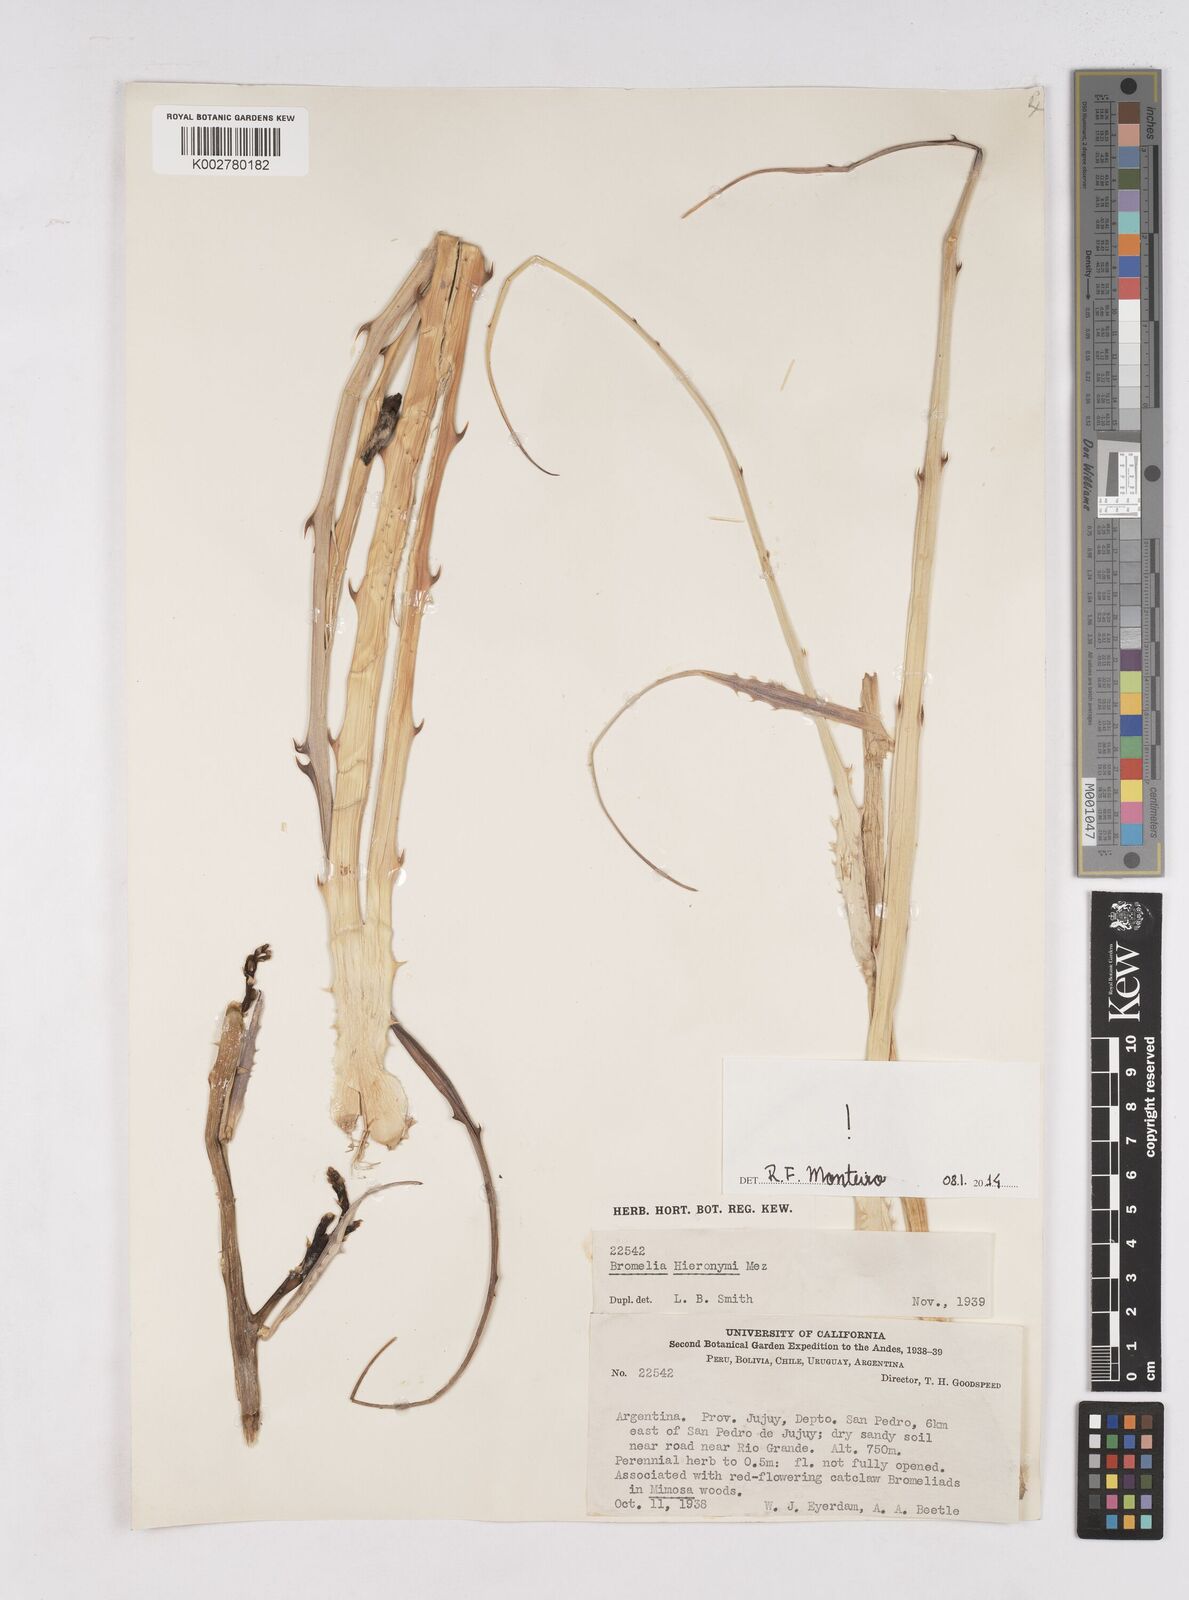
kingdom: Plantae
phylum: Tracheophyta
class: Liliopsida
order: Poales
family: Bromeliaceae
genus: Bromelia
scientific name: Bromelia hieronymi
